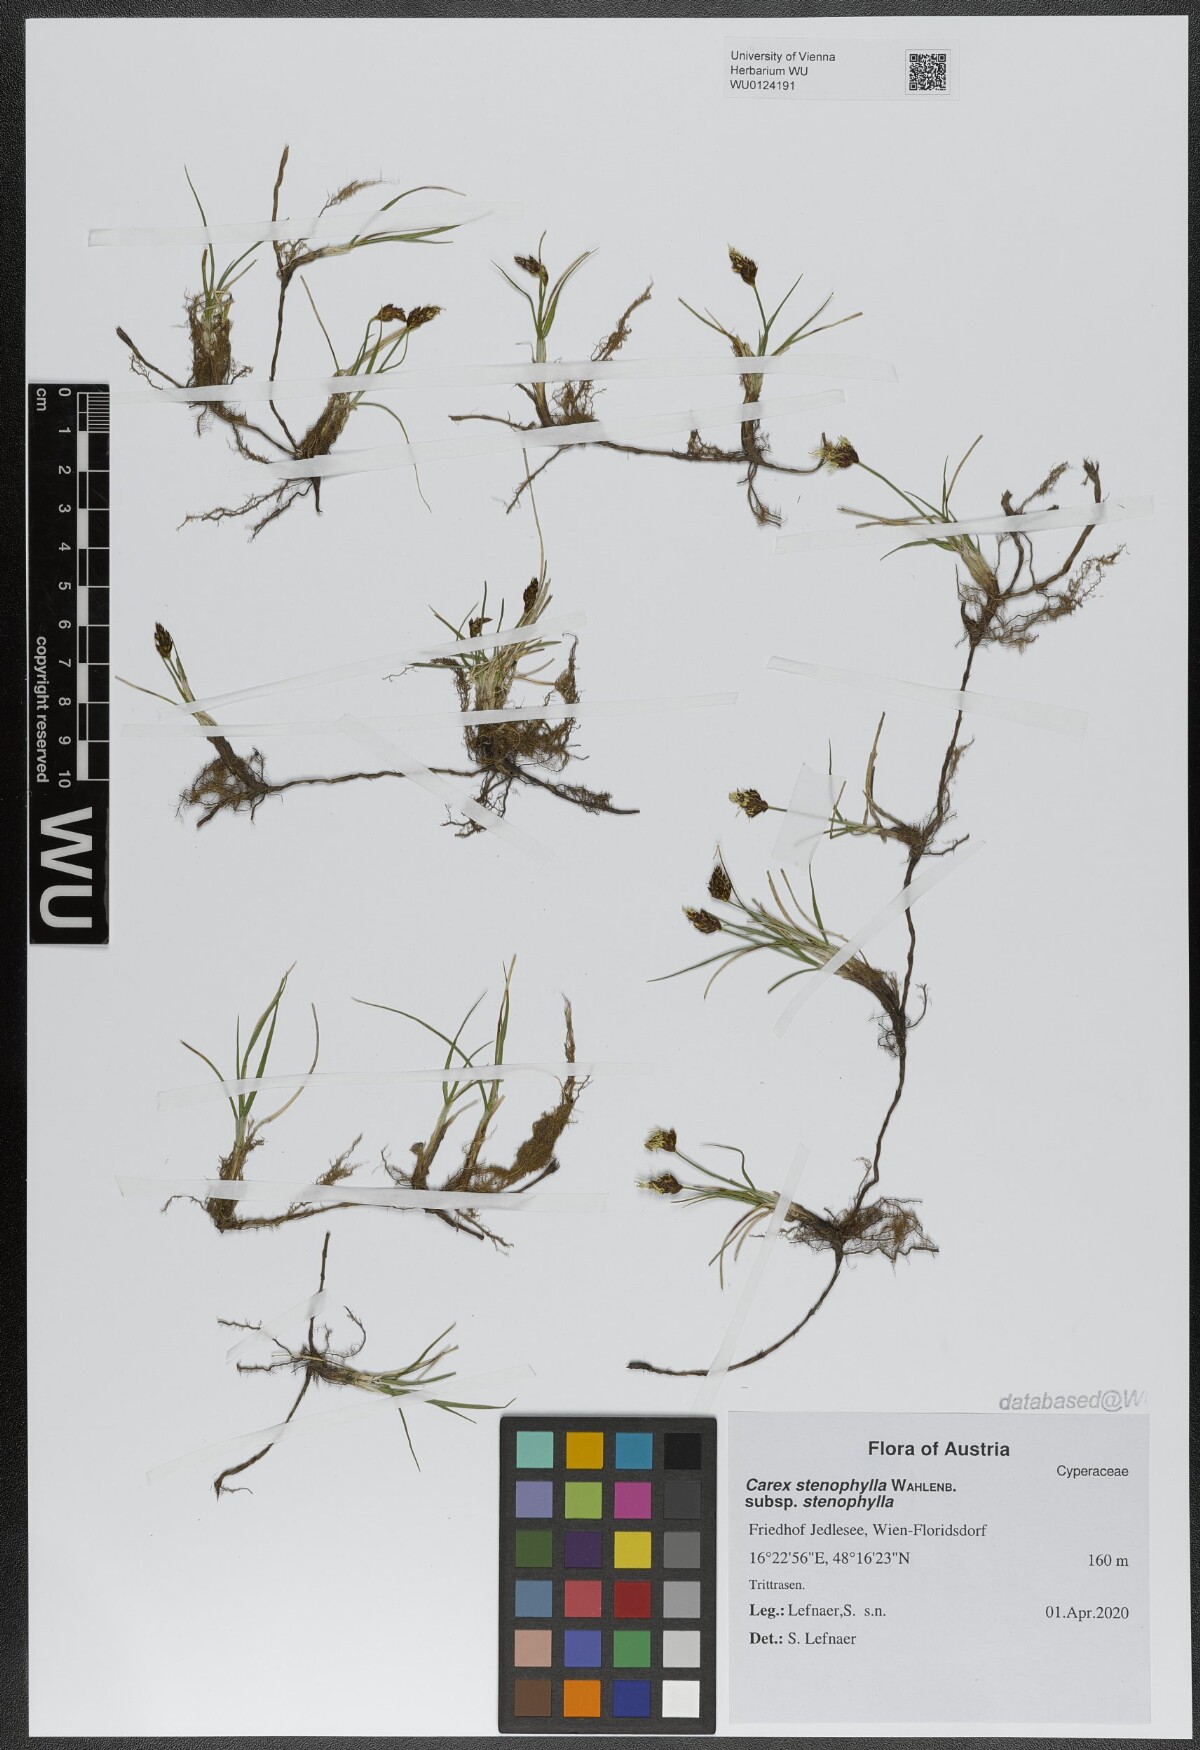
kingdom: Plantae
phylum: Tracheophyta
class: Liliopsida
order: Poales
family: Cyperaceae
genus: Carex
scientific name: Carex stenophylla
